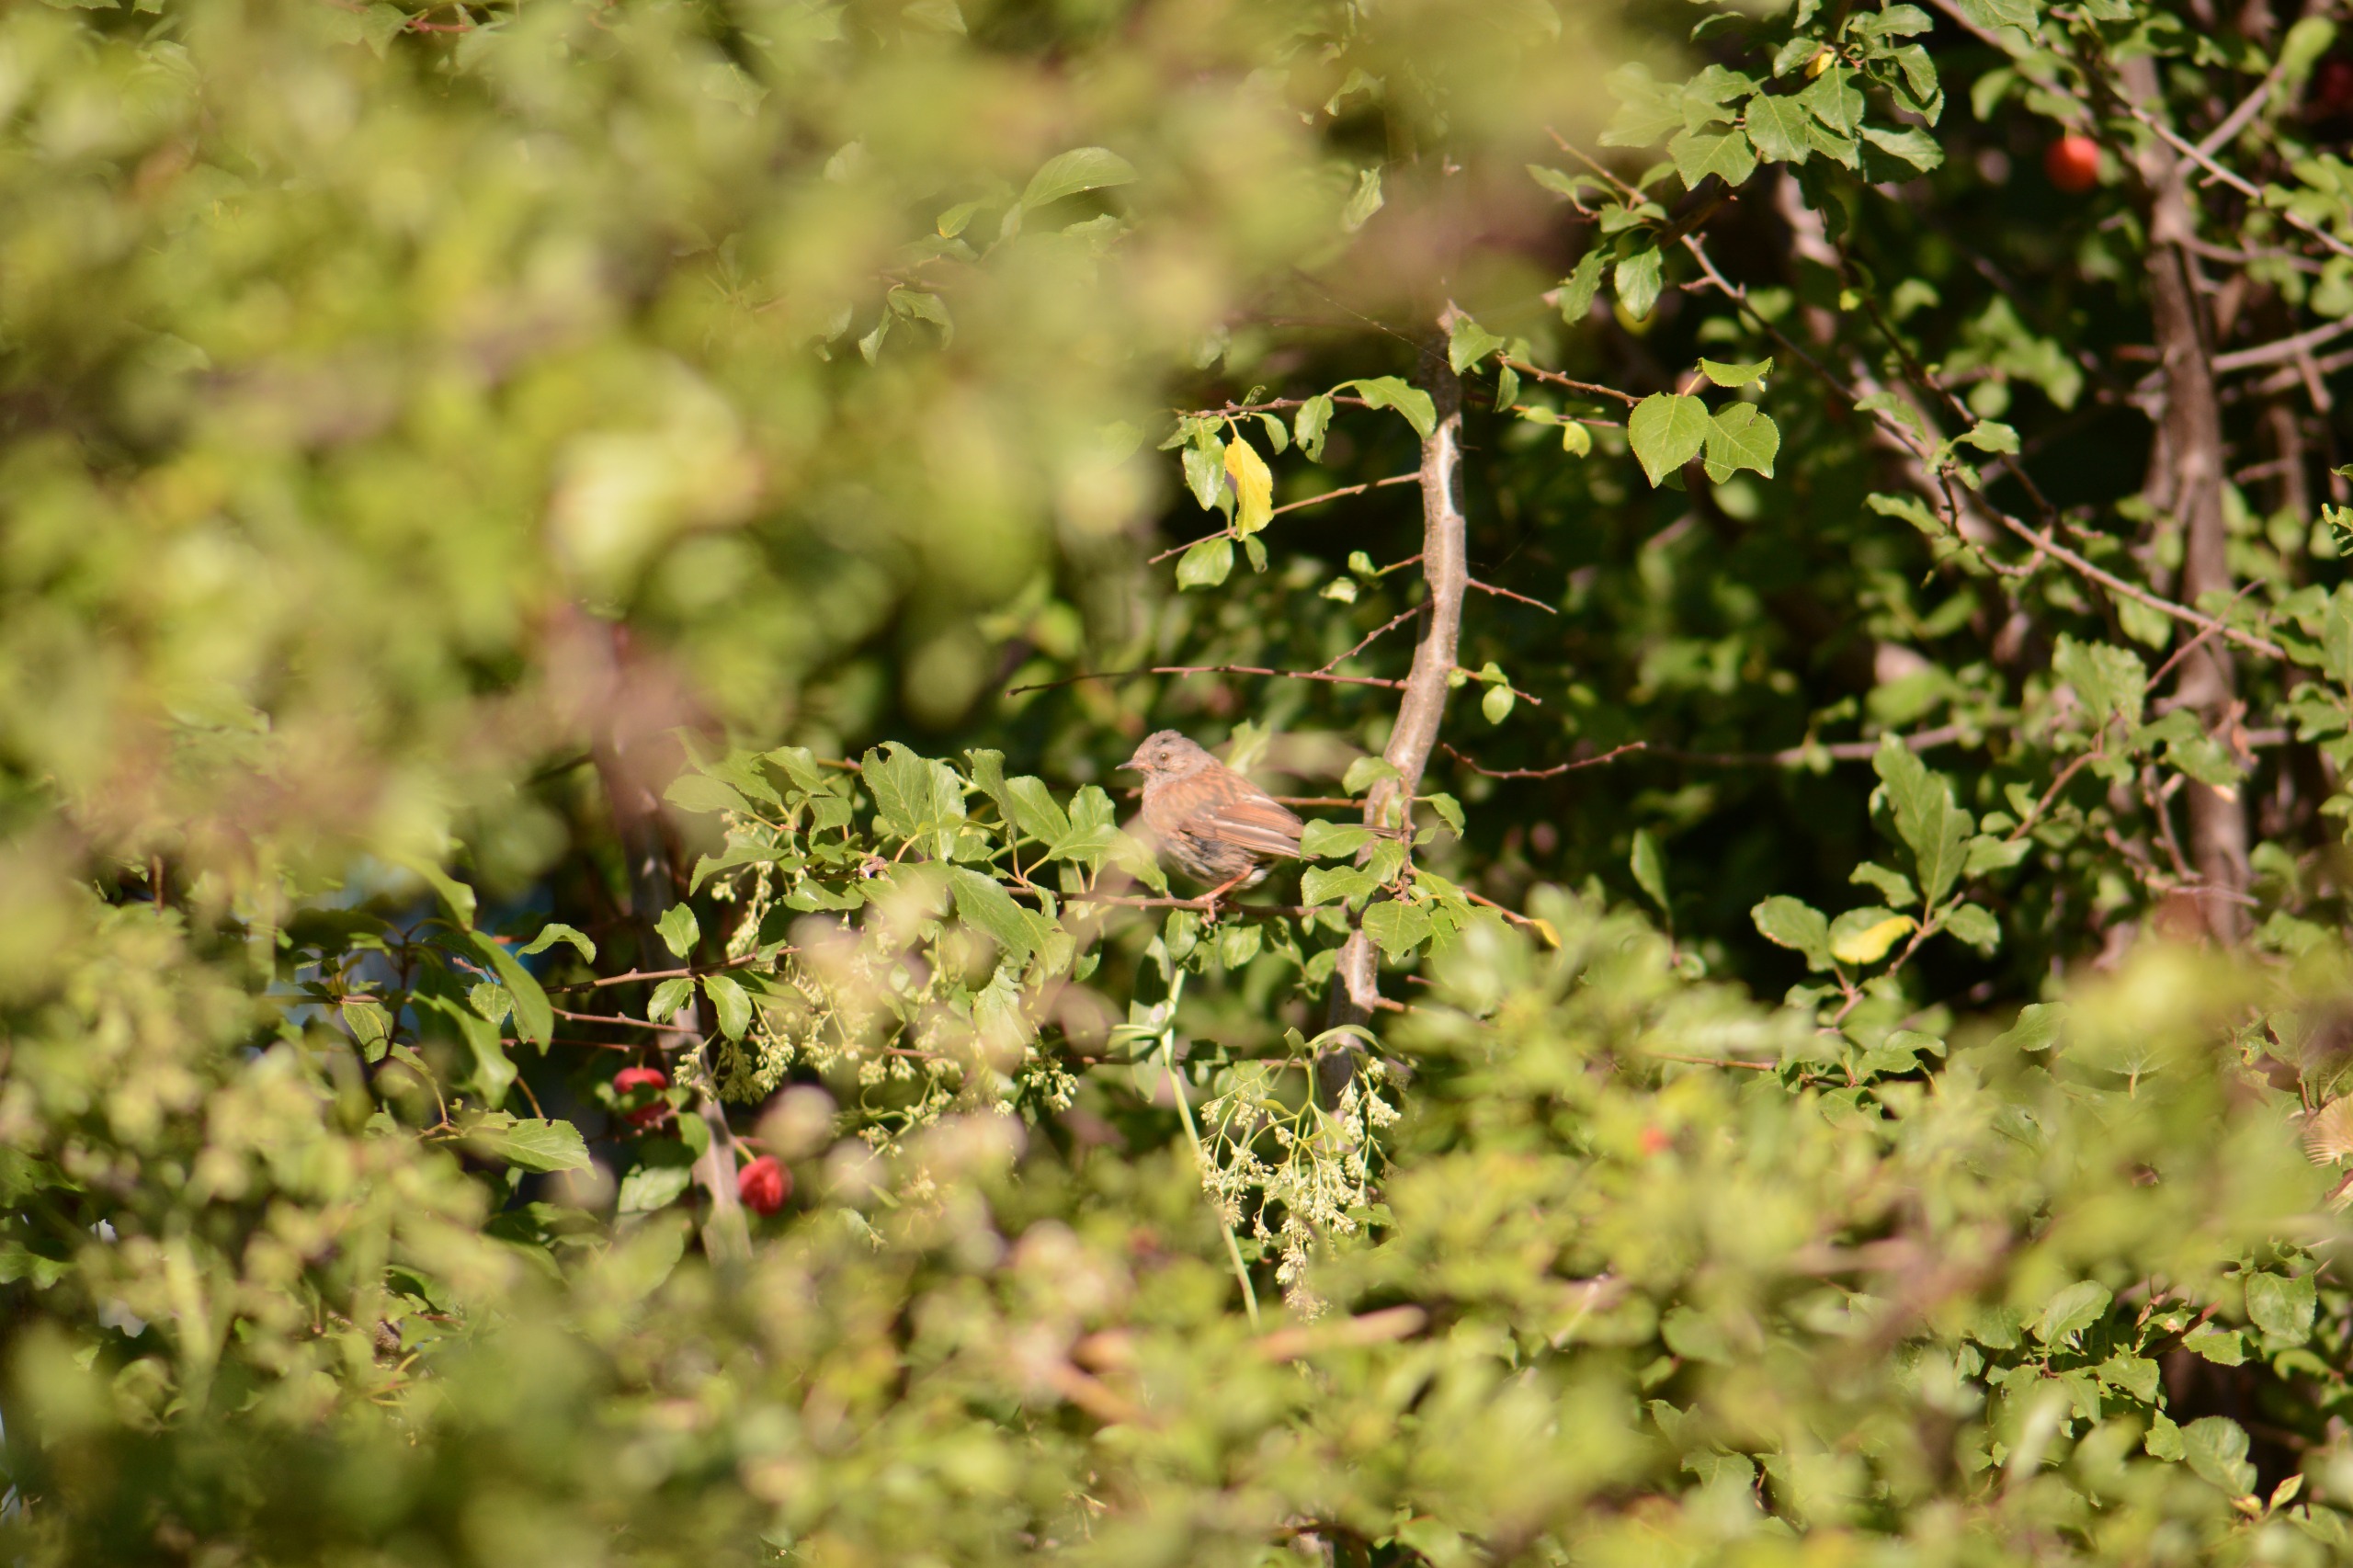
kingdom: Animalia
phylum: Chordata
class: Aves
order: Passeriformes
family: Prunellidae
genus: Prunella
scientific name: Prunella modularis
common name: Jernspurv
